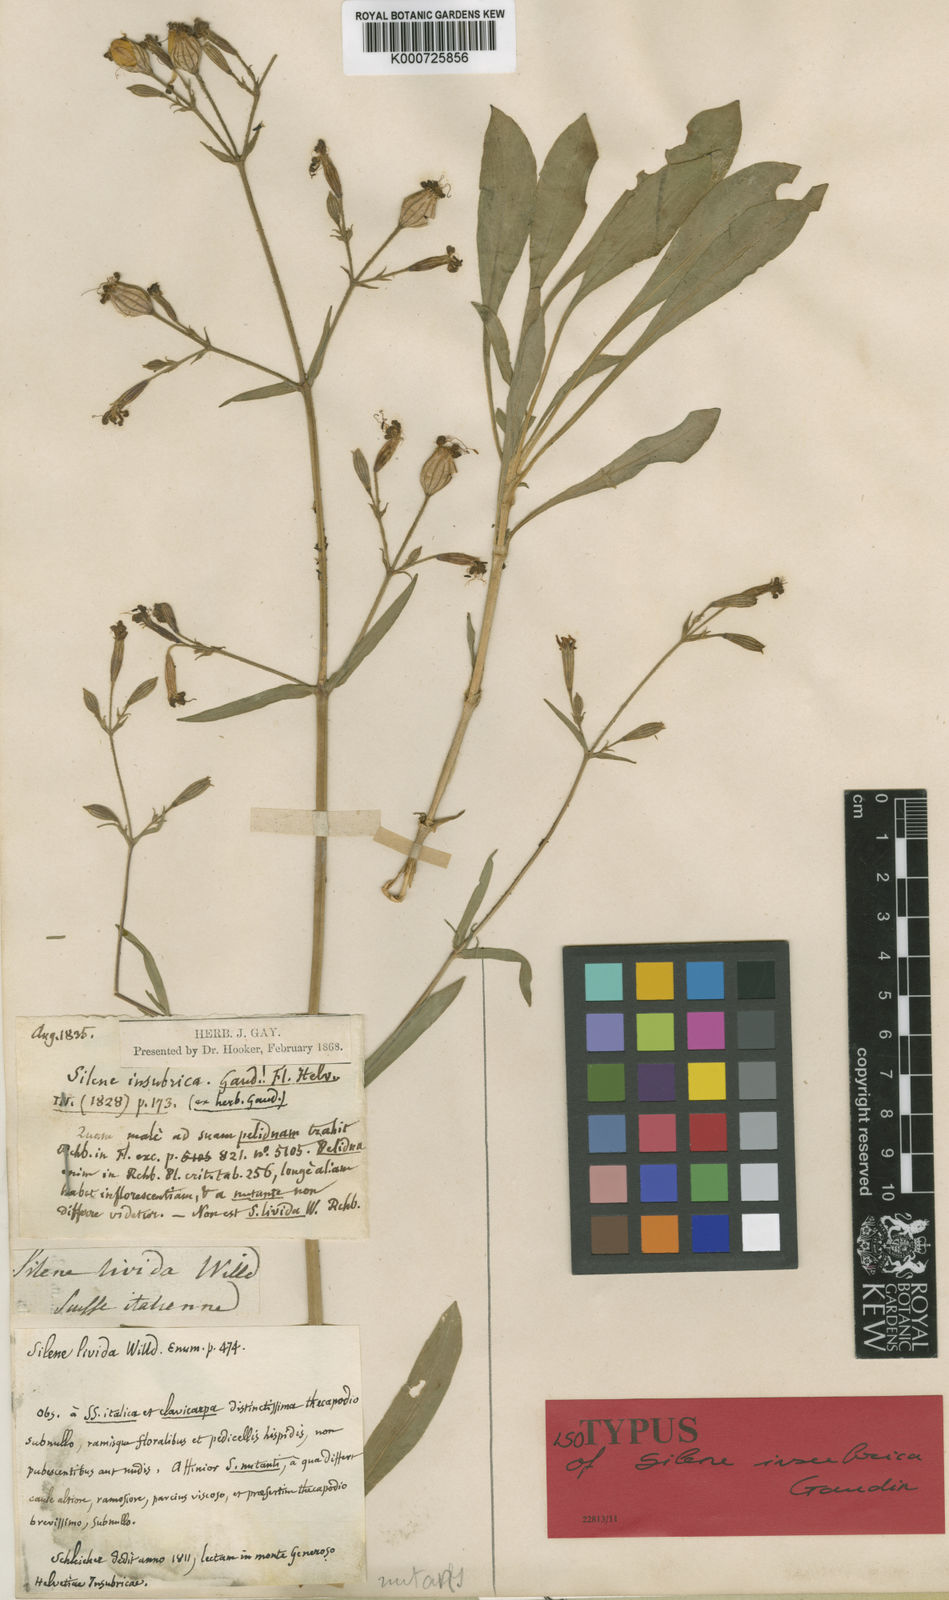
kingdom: Plantae
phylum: Tracheophyta
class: Magnoliopsida
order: Caryophyllales
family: Caryophyllaceae
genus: Silene
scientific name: Silene nutans
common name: Nottingham catchfly
